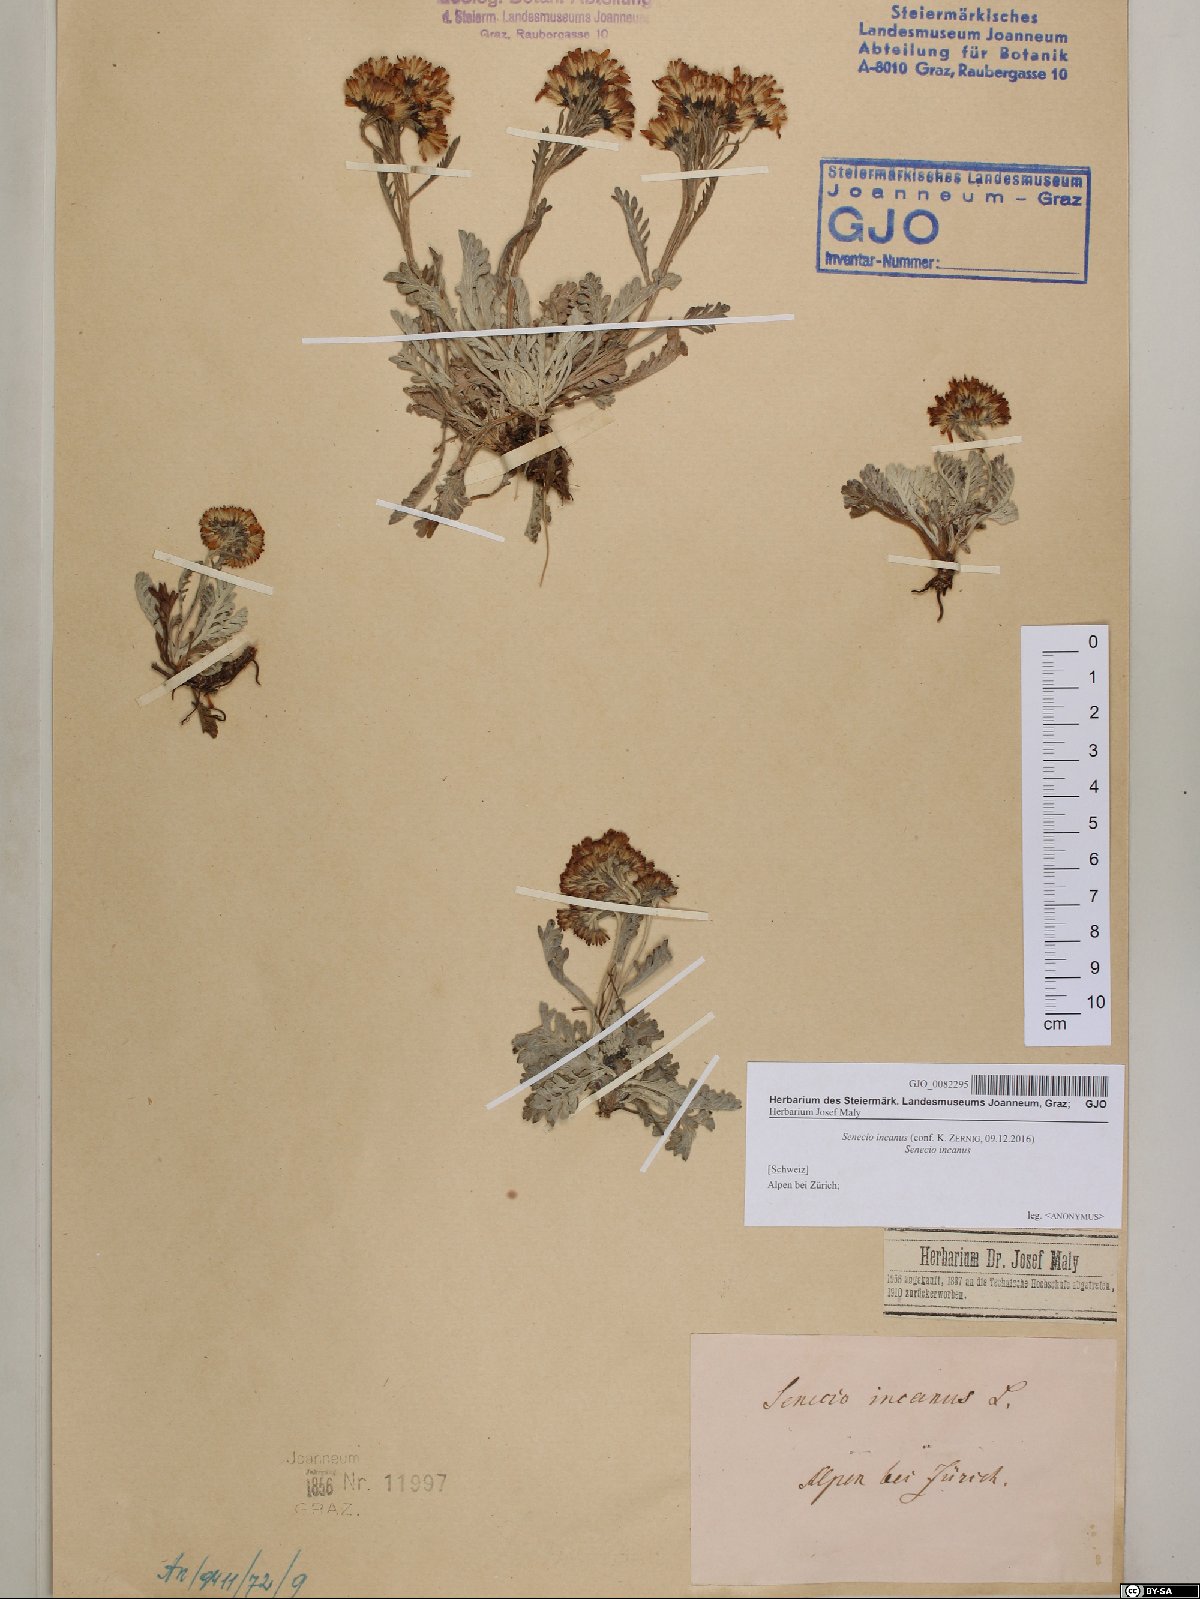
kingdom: Plantae
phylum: Tracheophyta
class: Magnoliopsida
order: Asterales
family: Asteraceae
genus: Jacobaea
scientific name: Jacobaea incana
